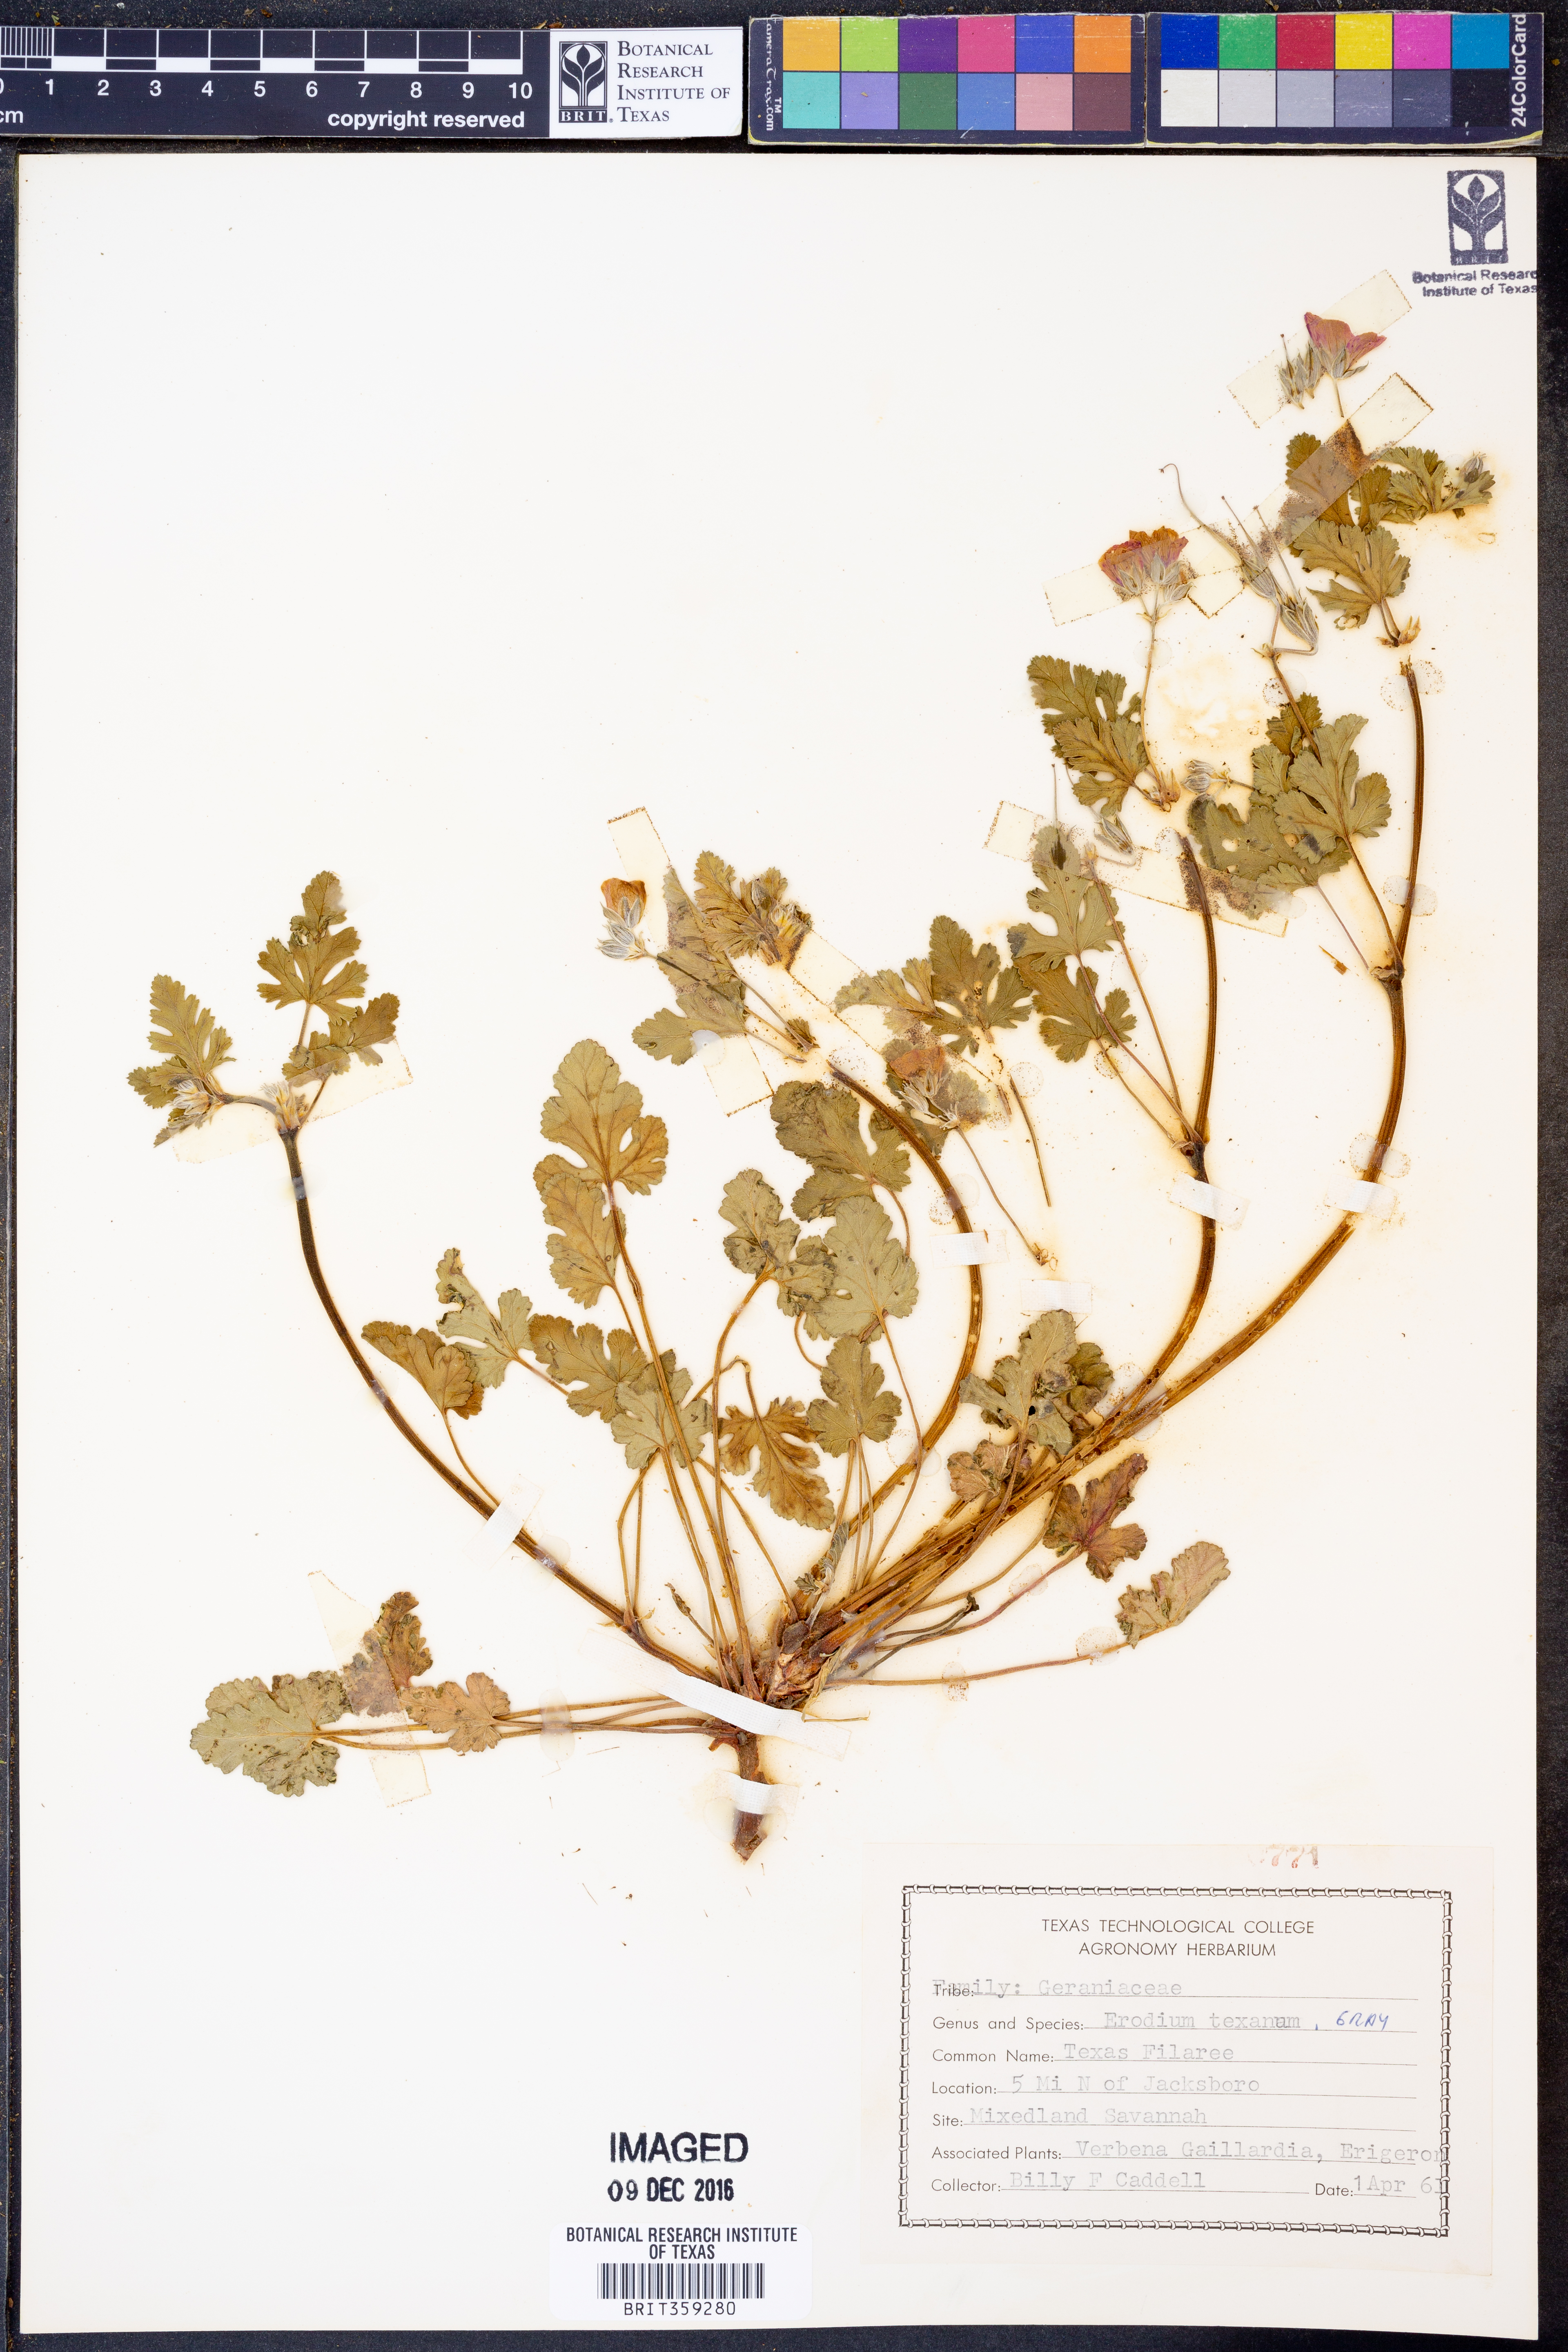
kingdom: Plantae
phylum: Tracheophyta
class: Magnoliopsida
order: Geraniales
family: Geraniaceae
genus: Erodium
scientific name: Erodium texanum
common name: Texas stork's-bill
